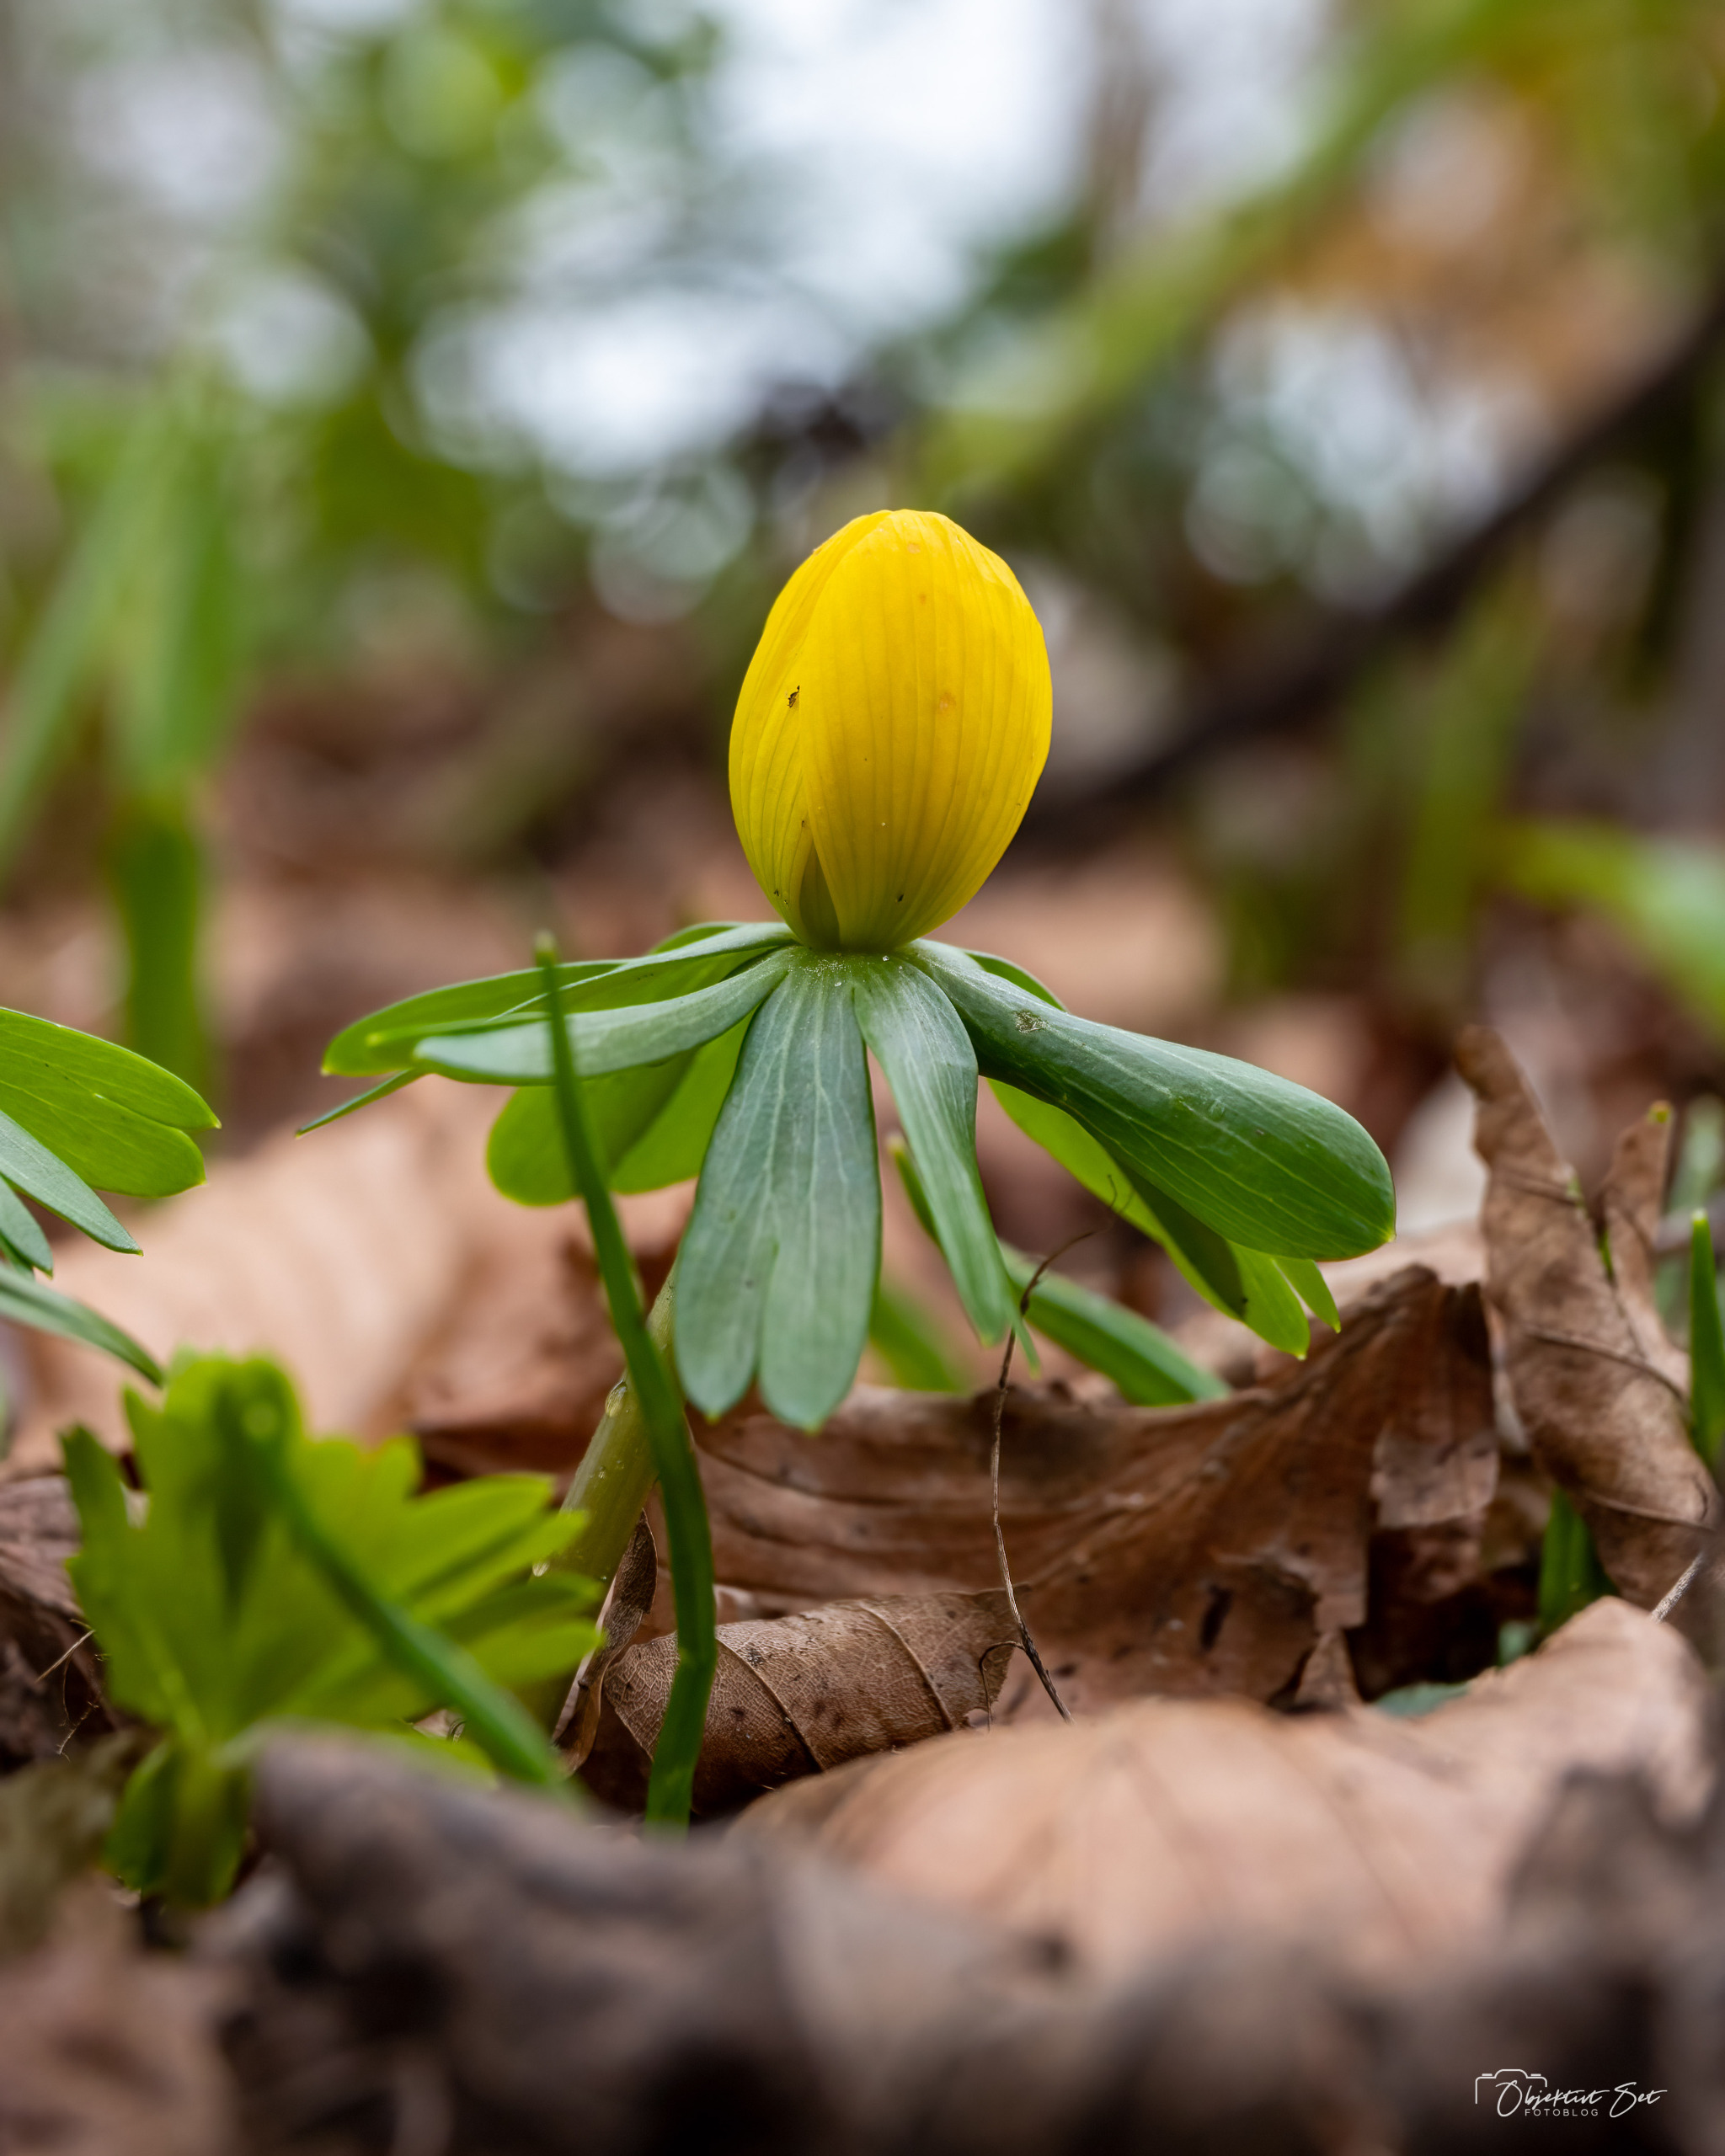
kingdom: Plantae
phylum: Tracheophyta
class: Magnoliopsida
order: Ranunculales
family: Ranunculaceae
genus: Eranthis
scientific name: Eranthis hyemalis
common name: Erantis
